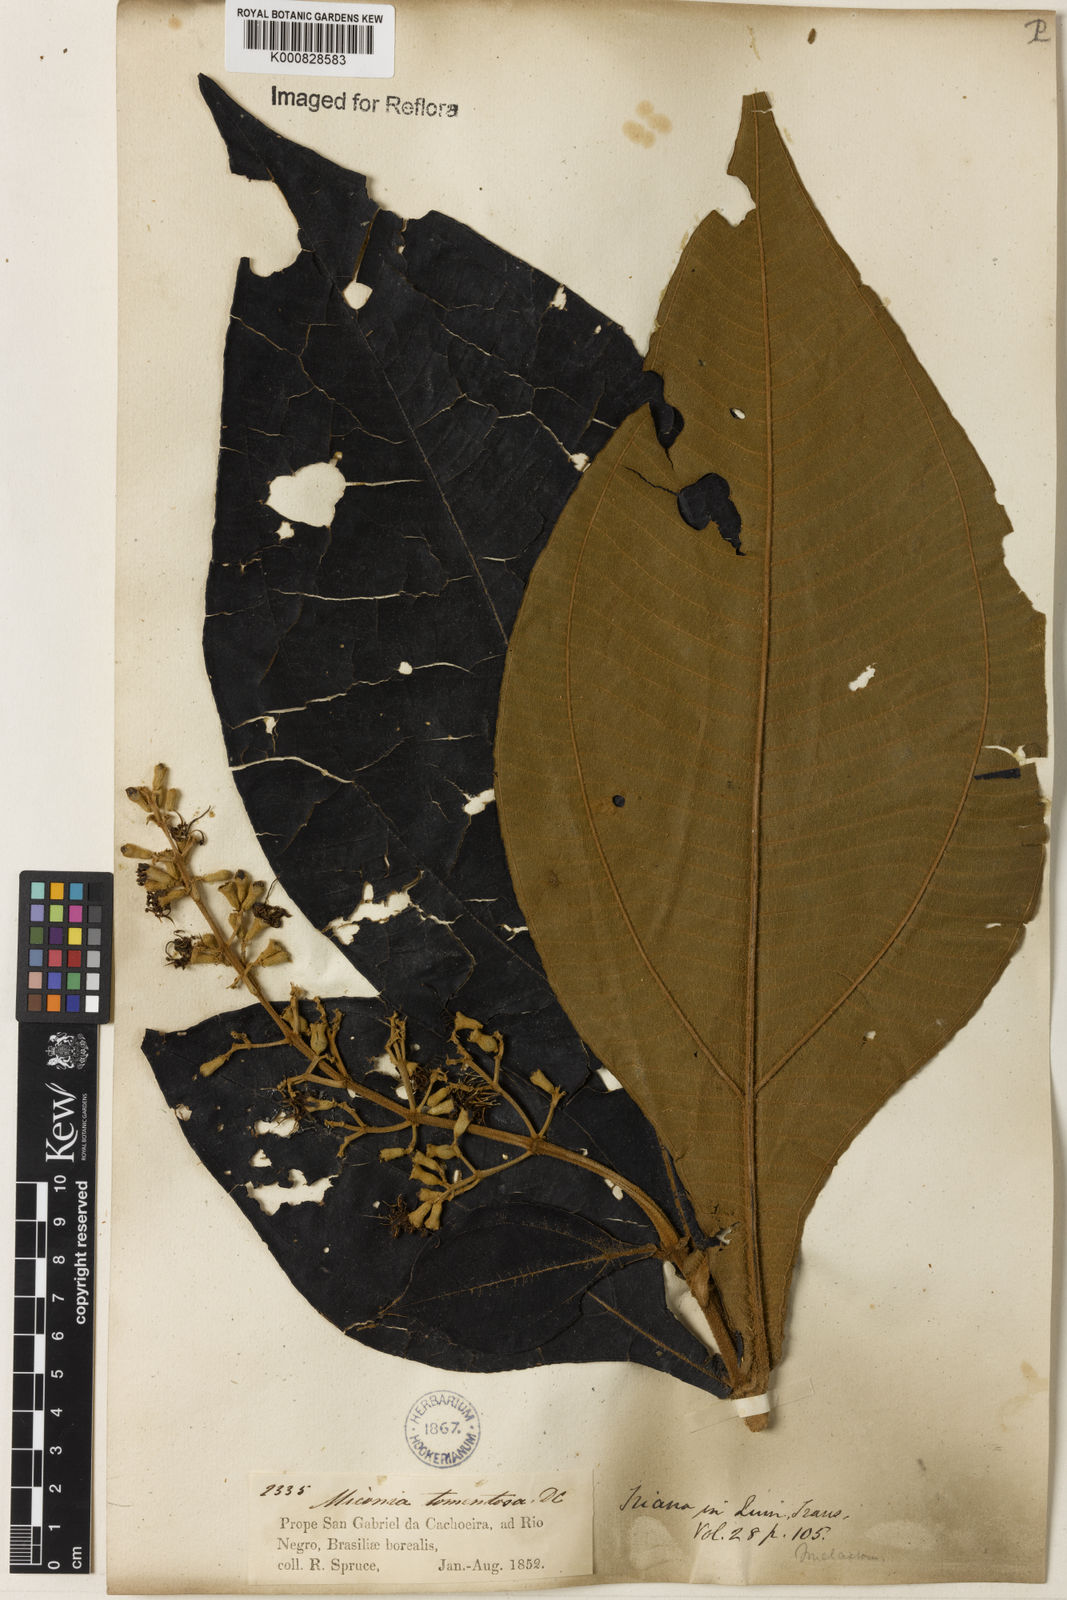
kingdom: Plantae
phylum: Tracheophyta
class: Magnoliopsida
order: Myrtales
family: Melastomataceae
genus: Miconia
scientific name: Miconia tomentosa
